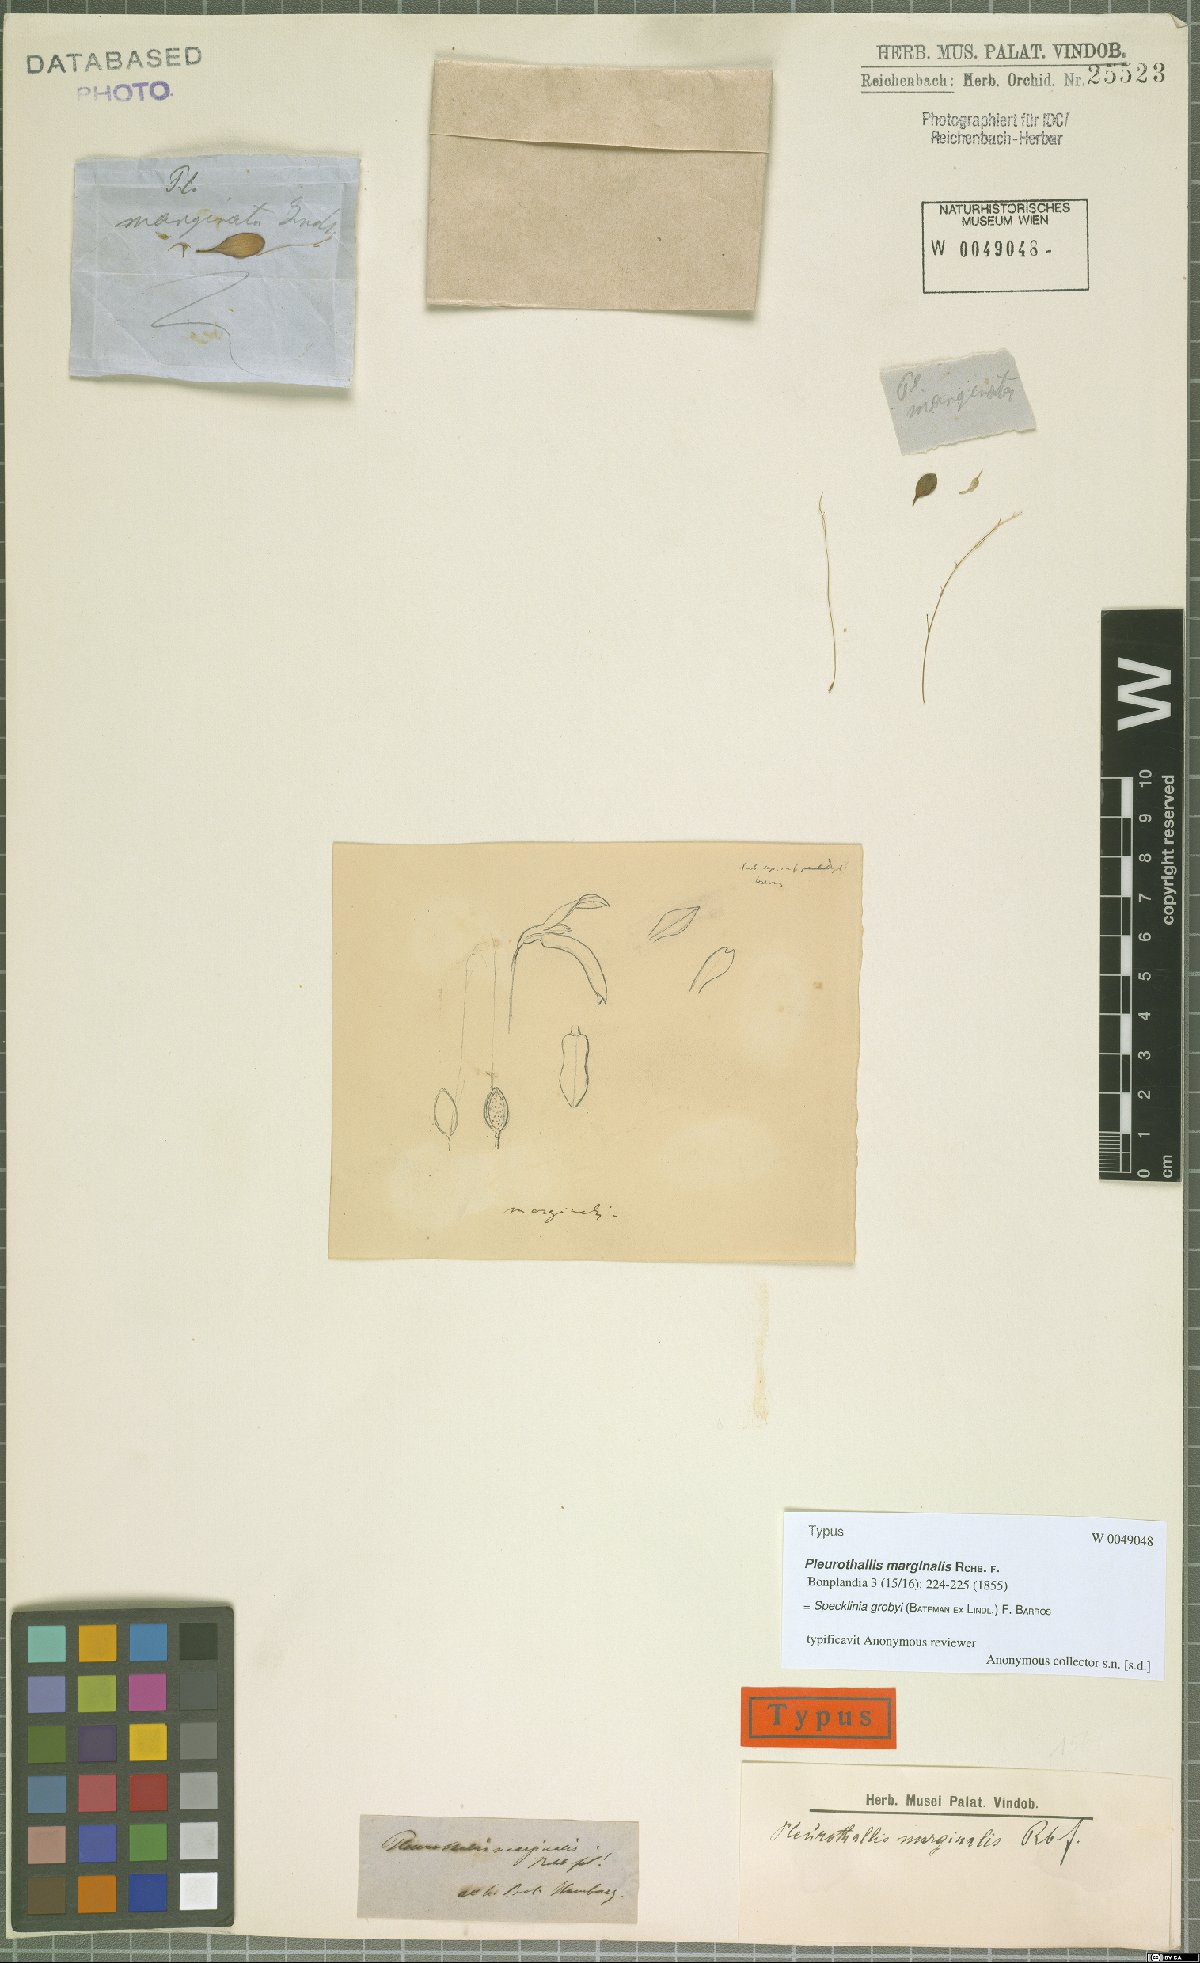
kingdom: Plantae
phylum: Tracheophyta
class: Liliopsida
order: Asparagales
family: Orchidaceae
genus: Specklinia
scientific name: Specklinia grobyi
